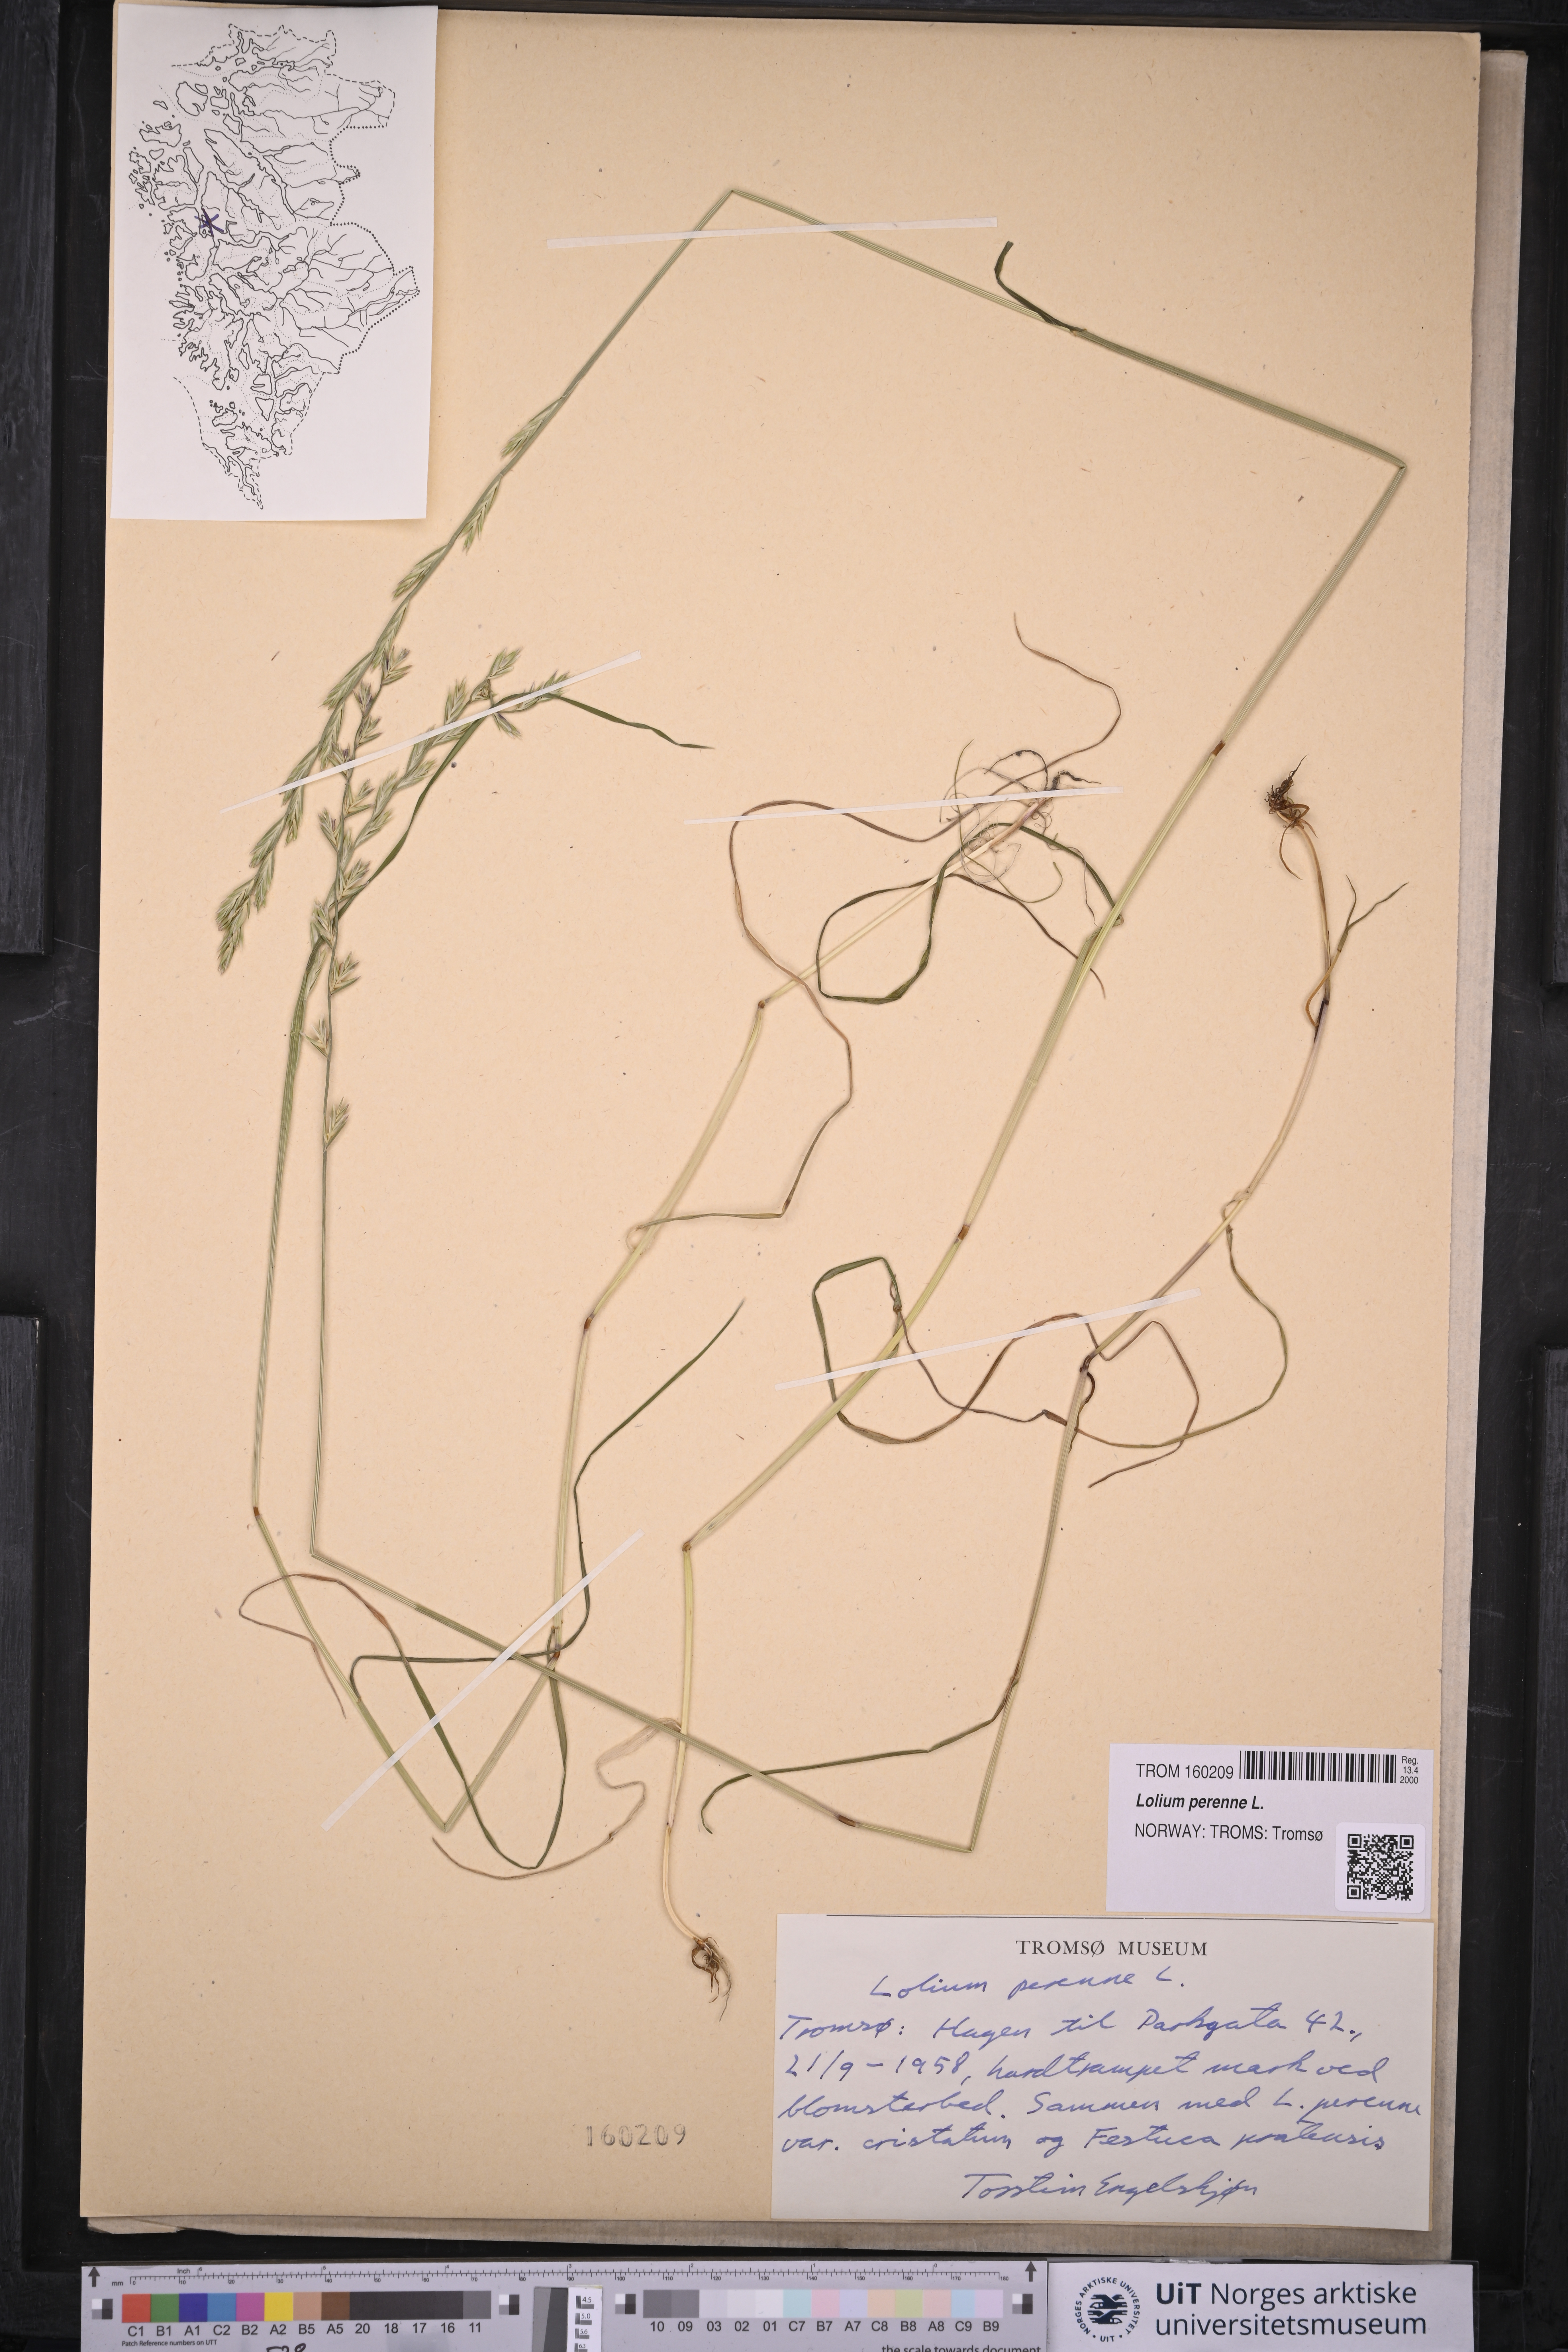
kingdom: Plantae
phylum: Tracheophyta
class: Liliopsida
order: Poales
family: Poaceae
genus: Lolium
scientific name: Lolium perenne
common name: Perennial ryegrass
